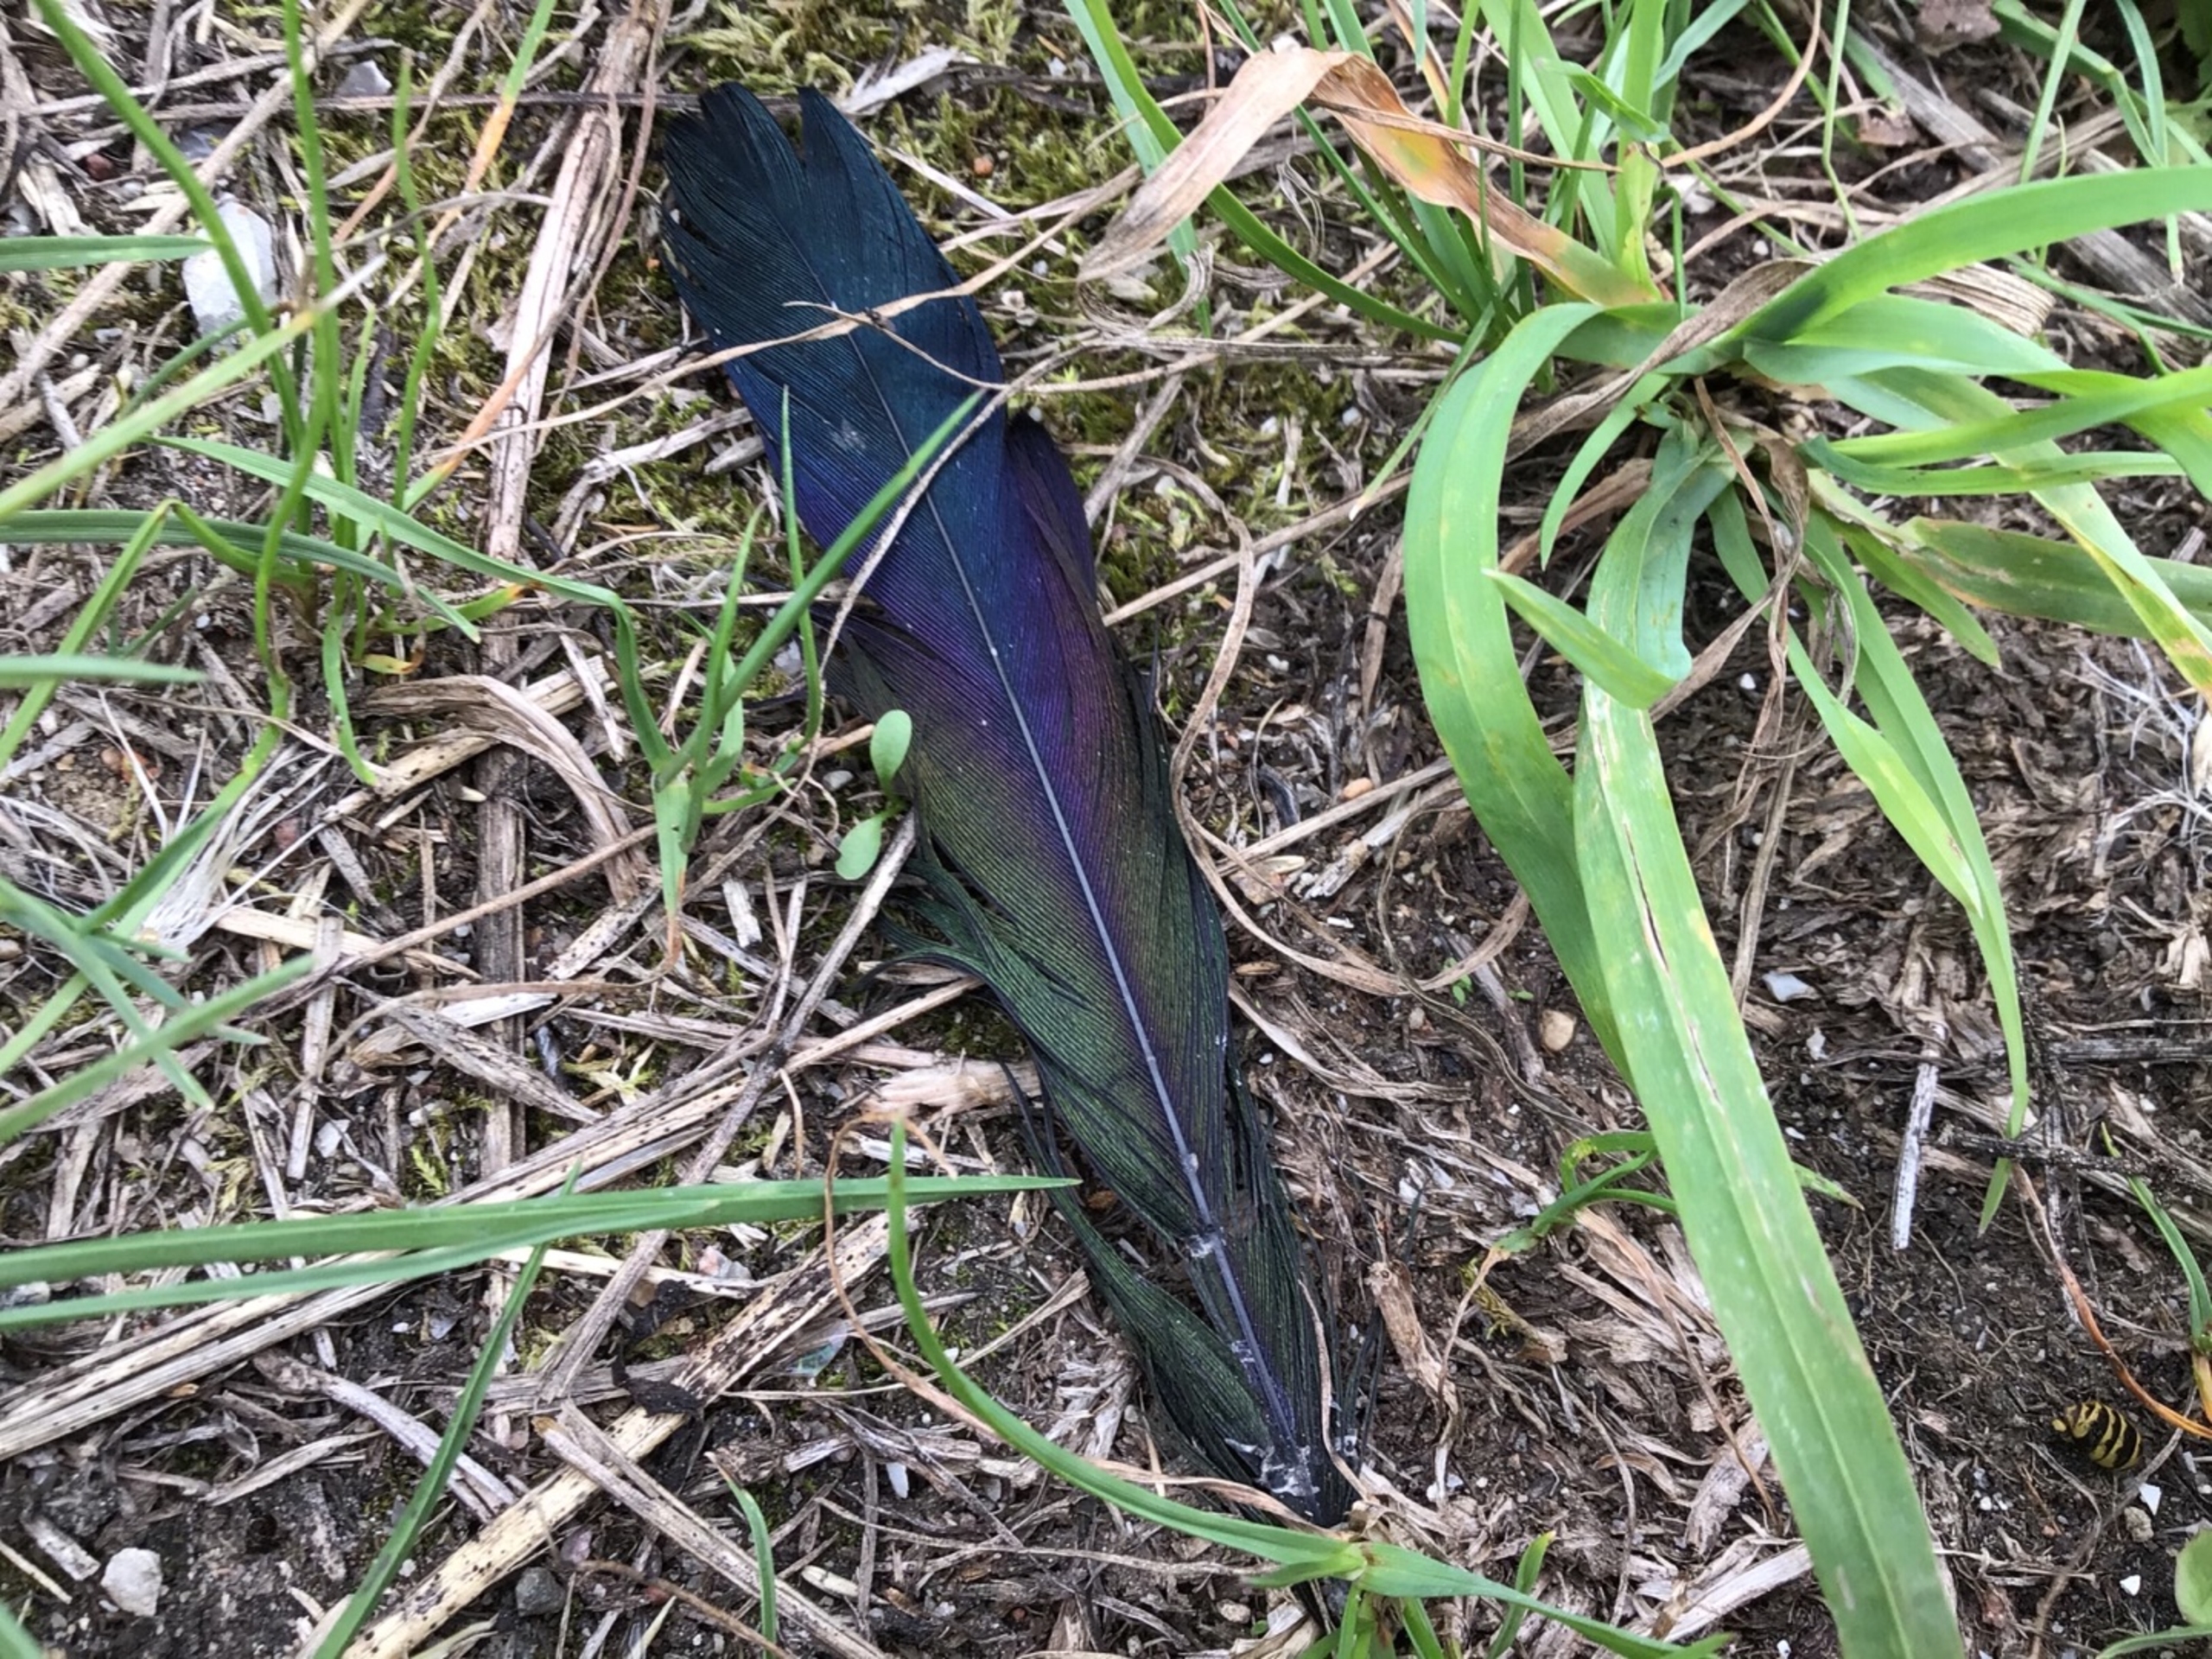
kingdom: Animalia
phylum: Chordata
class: Aves
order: Passeriformes
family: Corvidae
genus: Pica
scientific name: Pica pica
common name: Husskade
